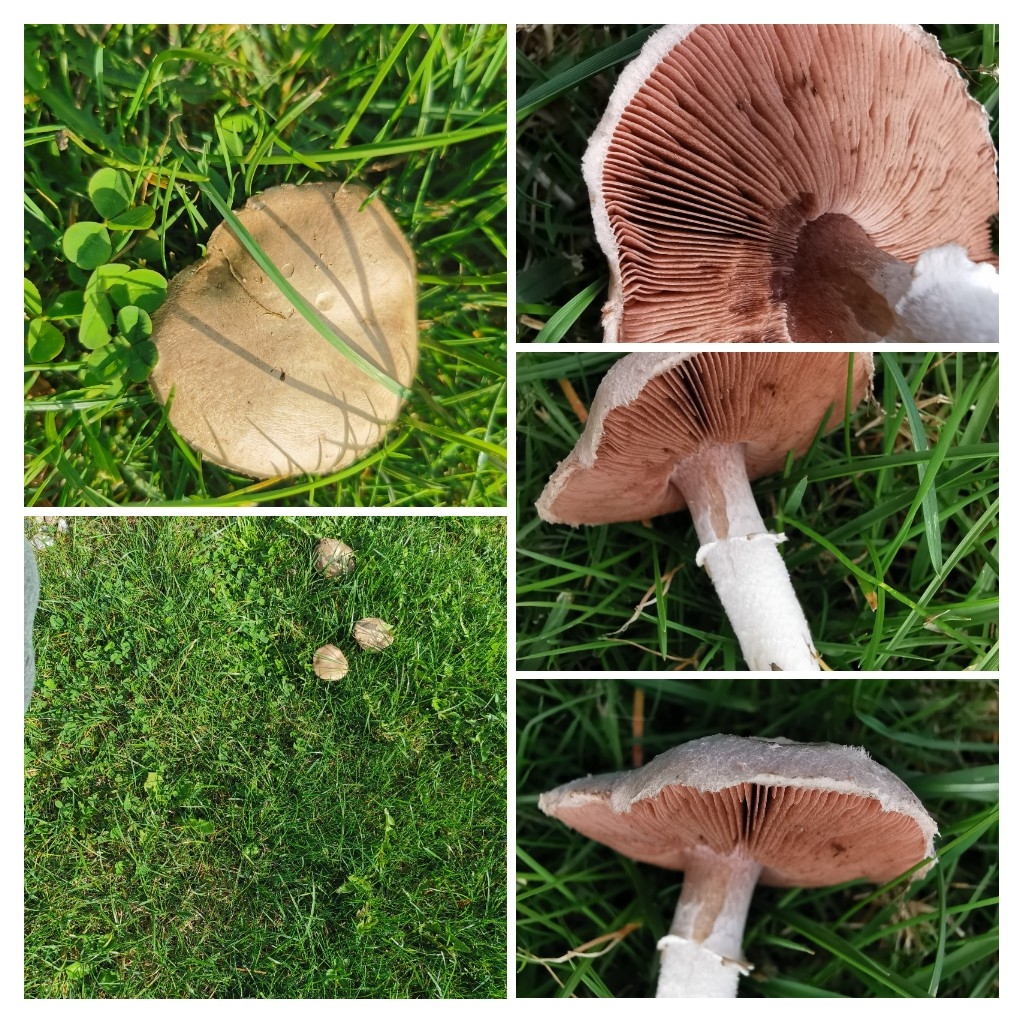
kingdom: Fungi
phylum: Basidiomycota
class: Agaricomycetes
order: Agaricales
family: Agaricaceae
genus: Agaricus
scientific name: Agaricus
